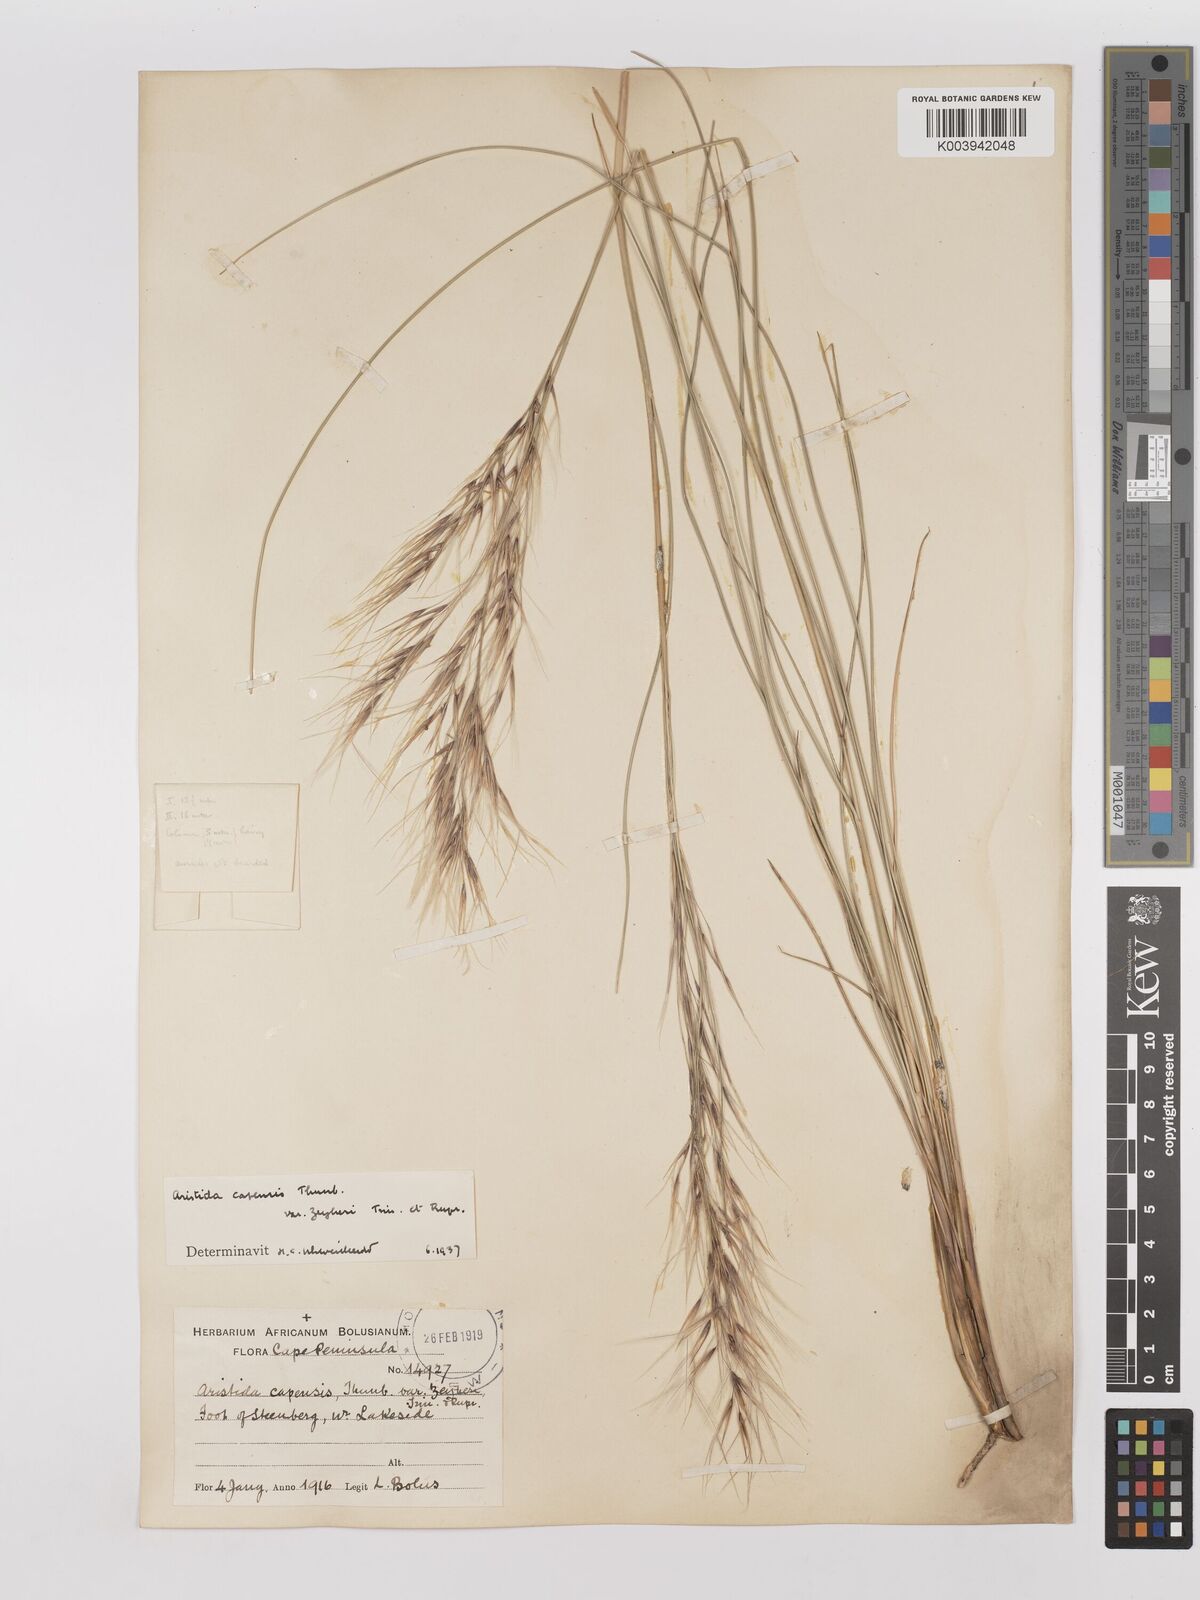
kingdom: Plantae
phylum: Tracheophyta
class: Liliopsida
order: Poales
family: Poaceae
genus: Stipagrostis
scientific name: Stipagrostis zeyheri
